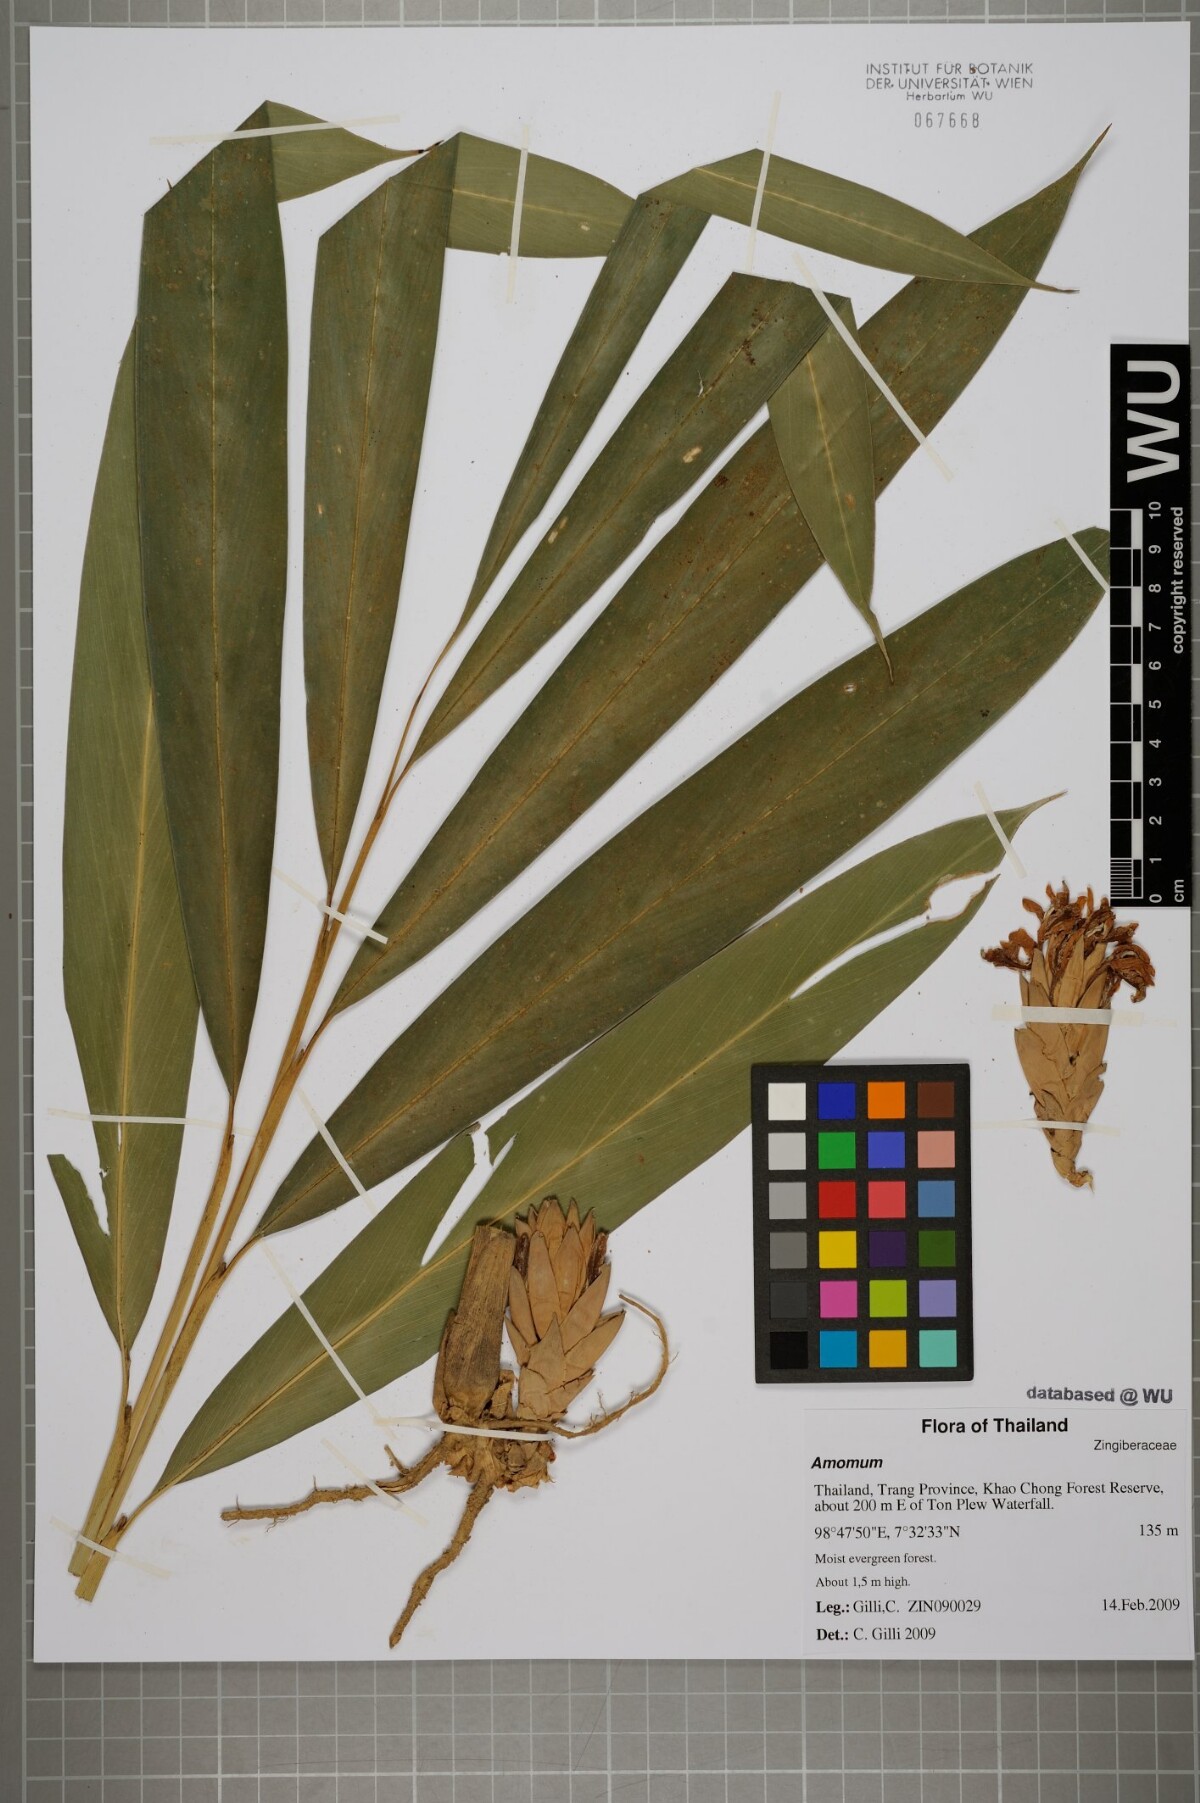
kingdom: Plantae
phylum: Tracheophyta
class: Liliopsida
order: Zingiberales
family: Zingiberaceae
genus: Amomum
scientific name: Amomum
